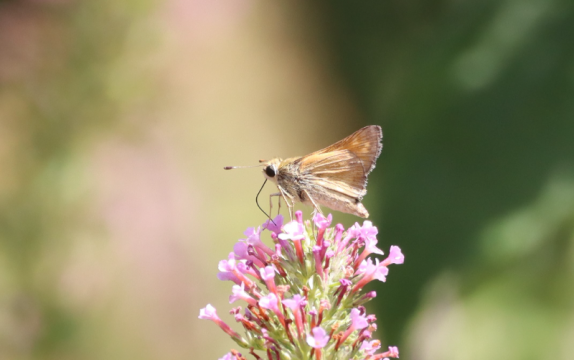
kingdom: Animalia
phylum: Arthropoda
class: Insecta
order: Lepidoptera
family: Hesperiidae
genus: Atalopedes
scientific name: Atalopedes campestris
